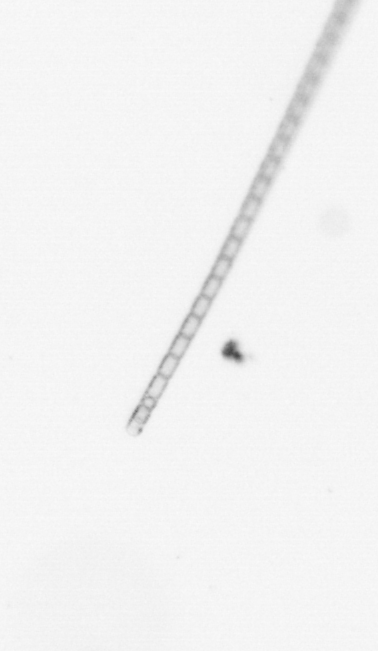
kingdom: Chromista
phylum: Ochrophyta
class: Bacillariophyceae
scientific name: Bacillariophyceae
